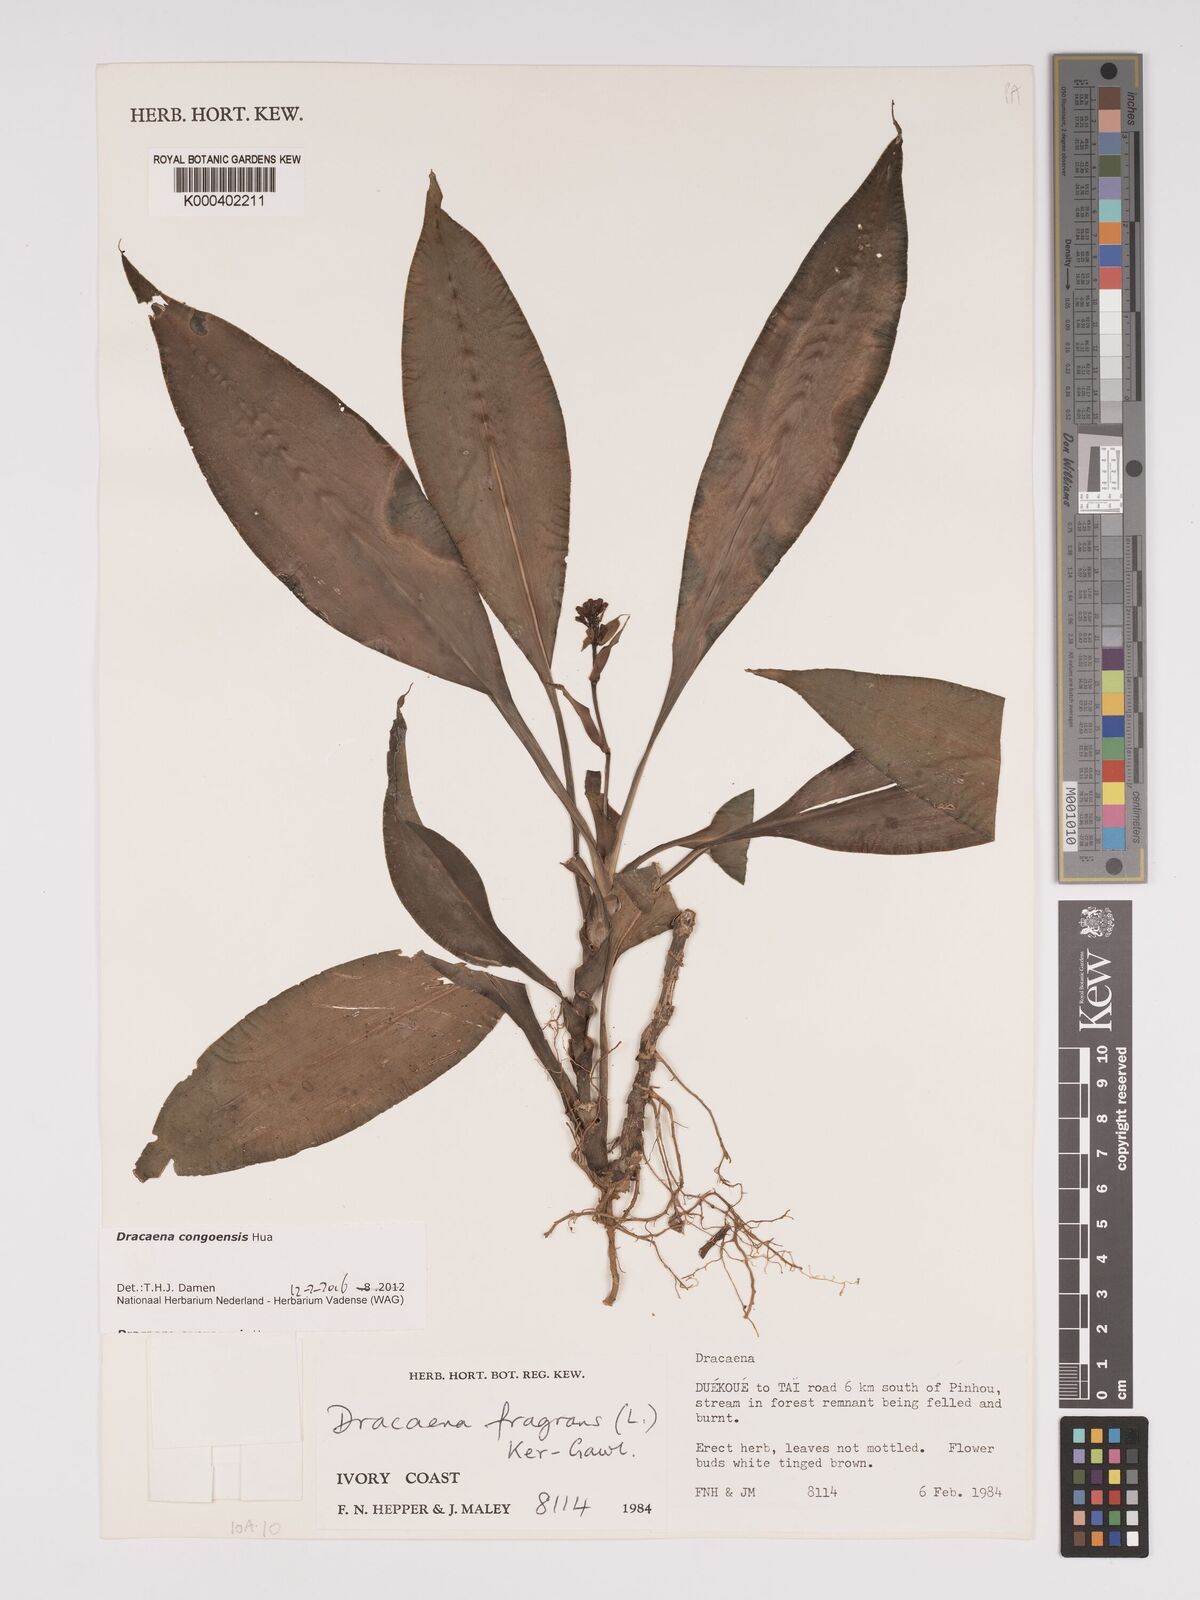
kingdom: Plantae
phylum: Tracheophyta
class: Liliopsida
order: Asparagales
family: Asparagaceae
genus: Dracaena
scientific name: Dracaena congoensis
